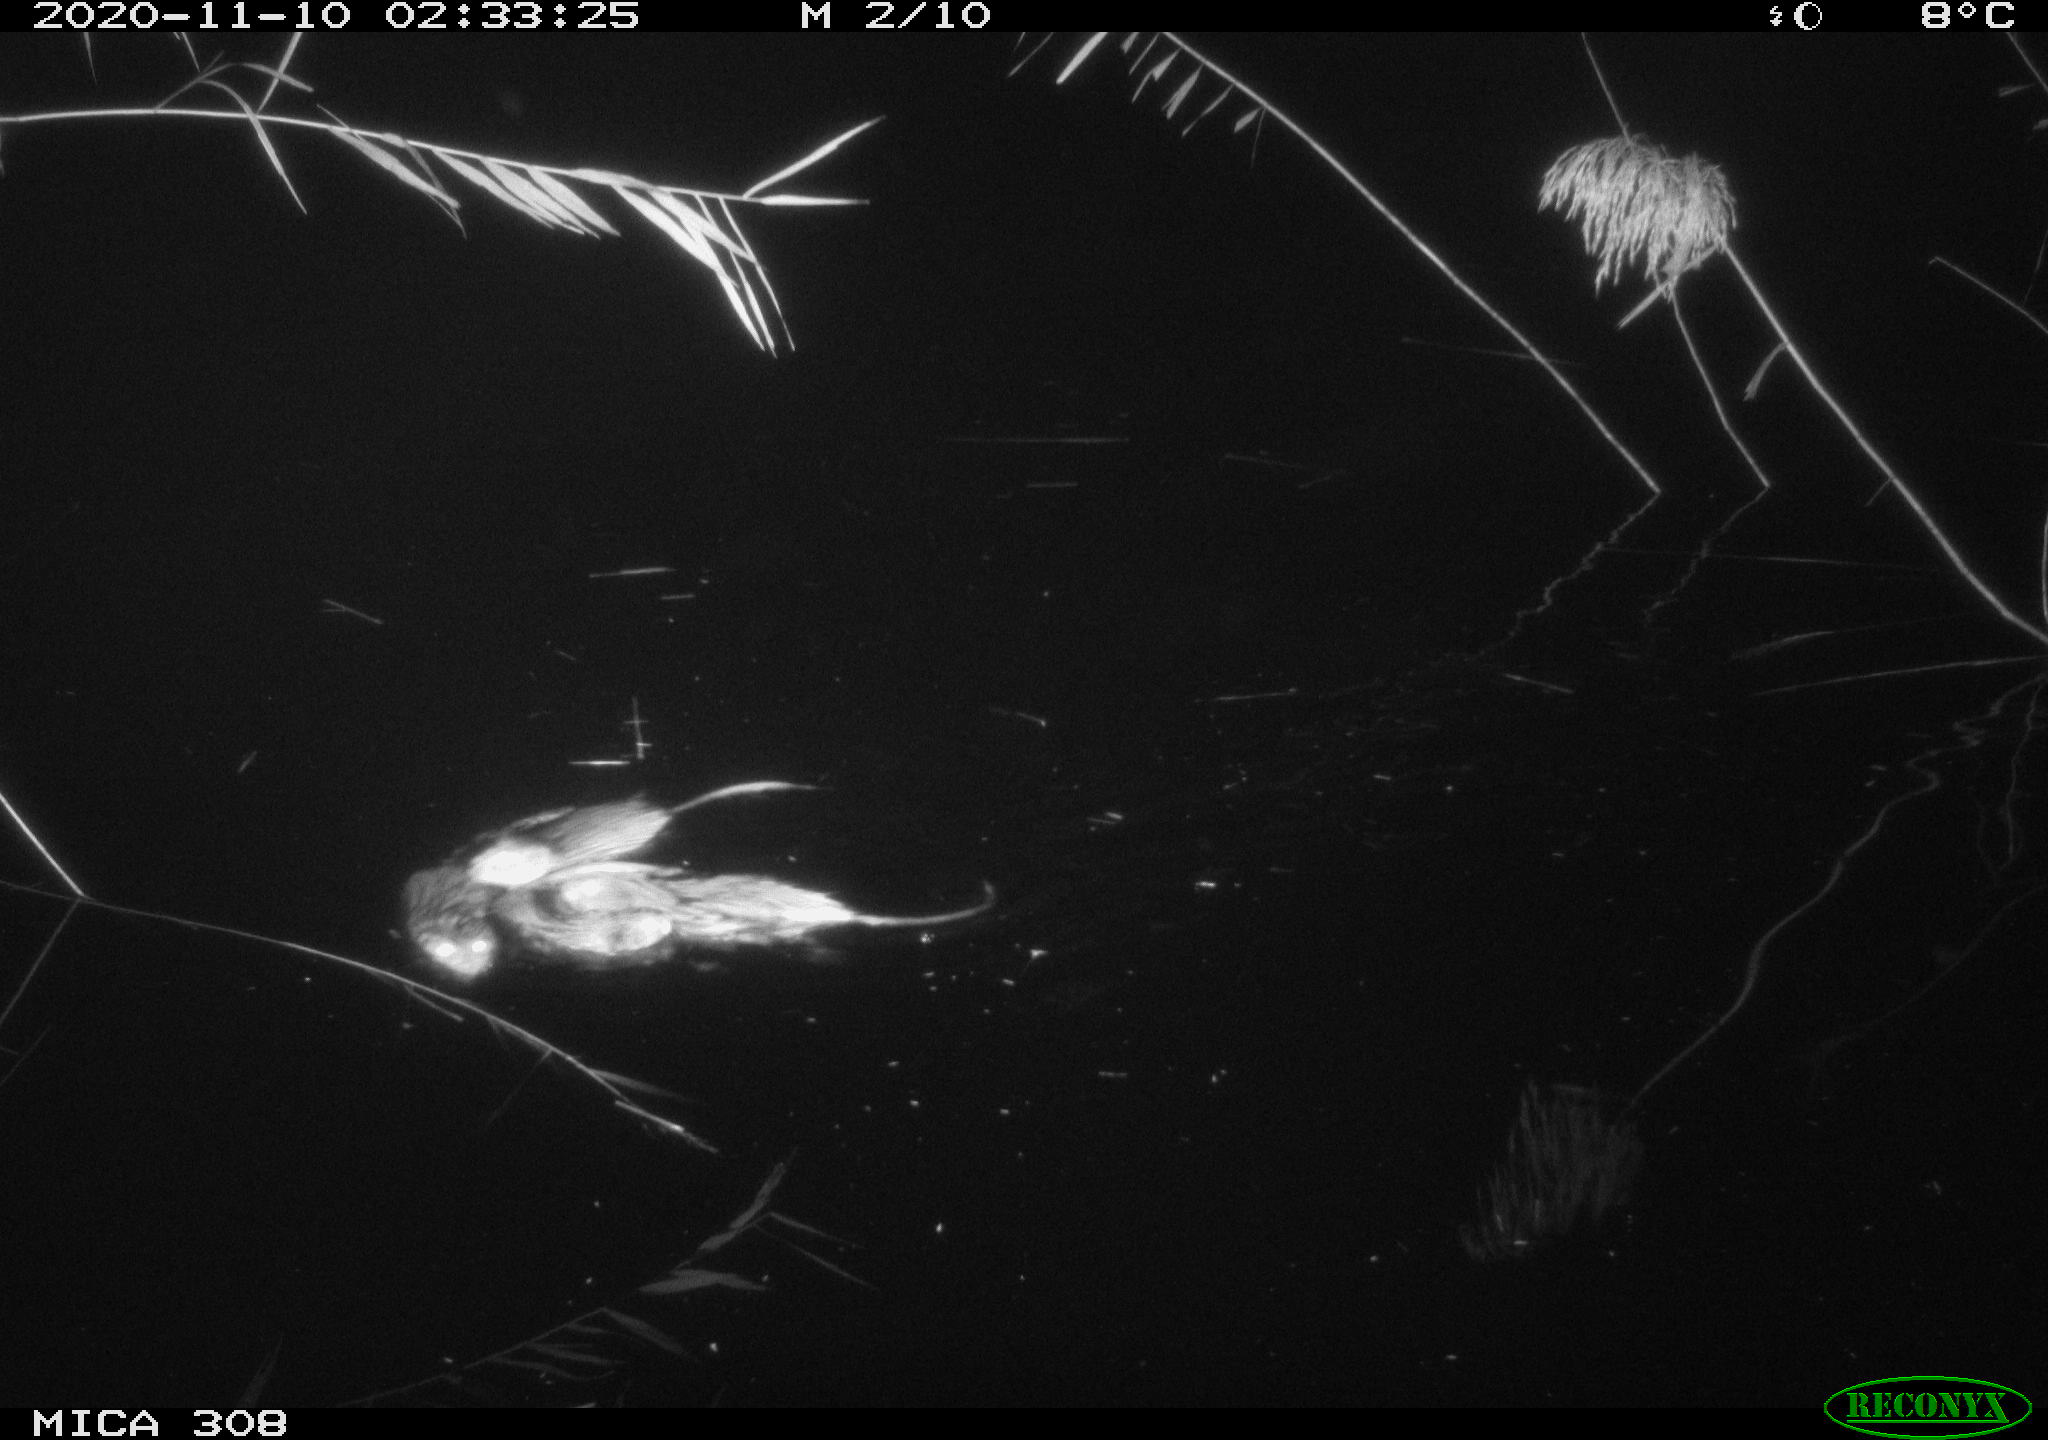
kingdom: Animalia
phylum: Chordata
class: Mammalia
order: Rodentia
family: Cricetidae
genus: Ondatra
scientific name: Ondatra zibethicus
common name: Muskrat
